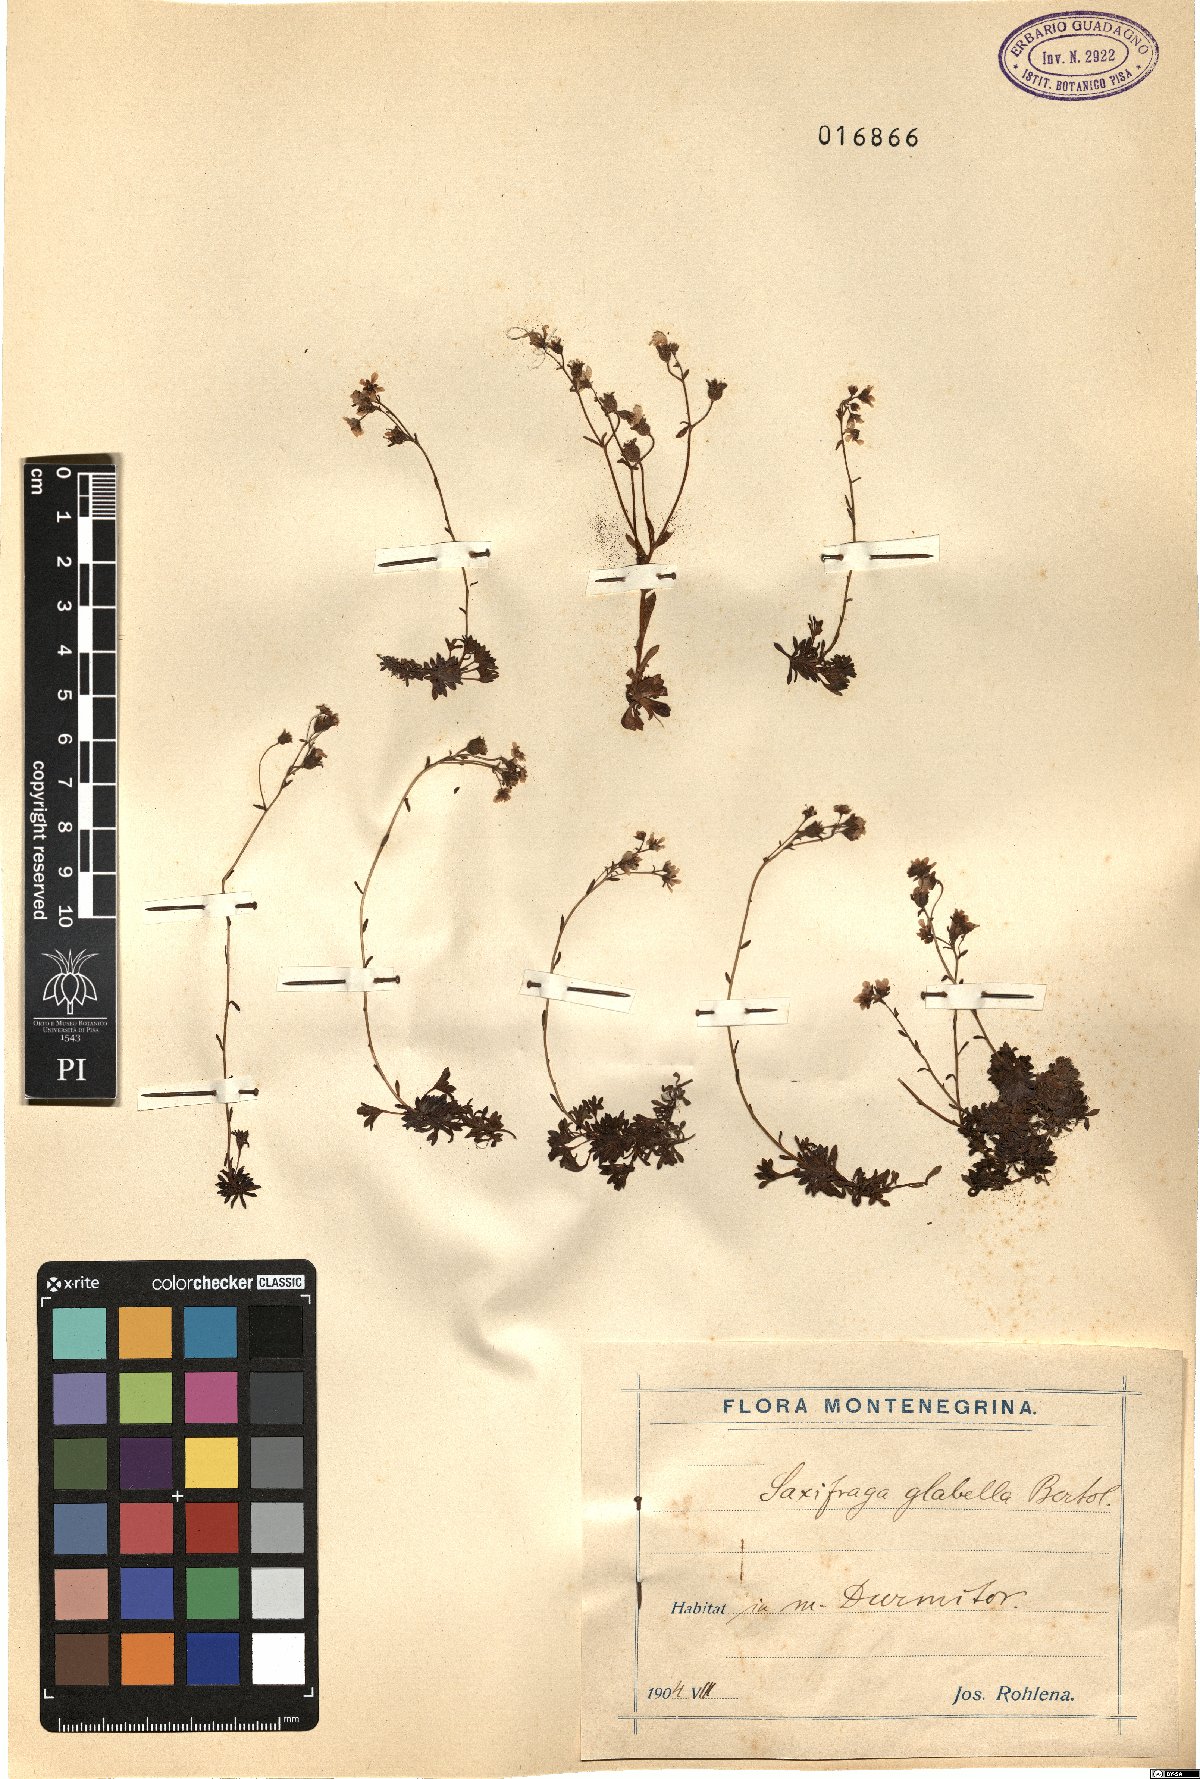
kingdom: Plantae
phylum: Tracheophyta
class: Magnoliopsida
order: Saxifragales
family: Saxifragaceae
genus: Saxifraga
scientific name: Saxifraga glabella
